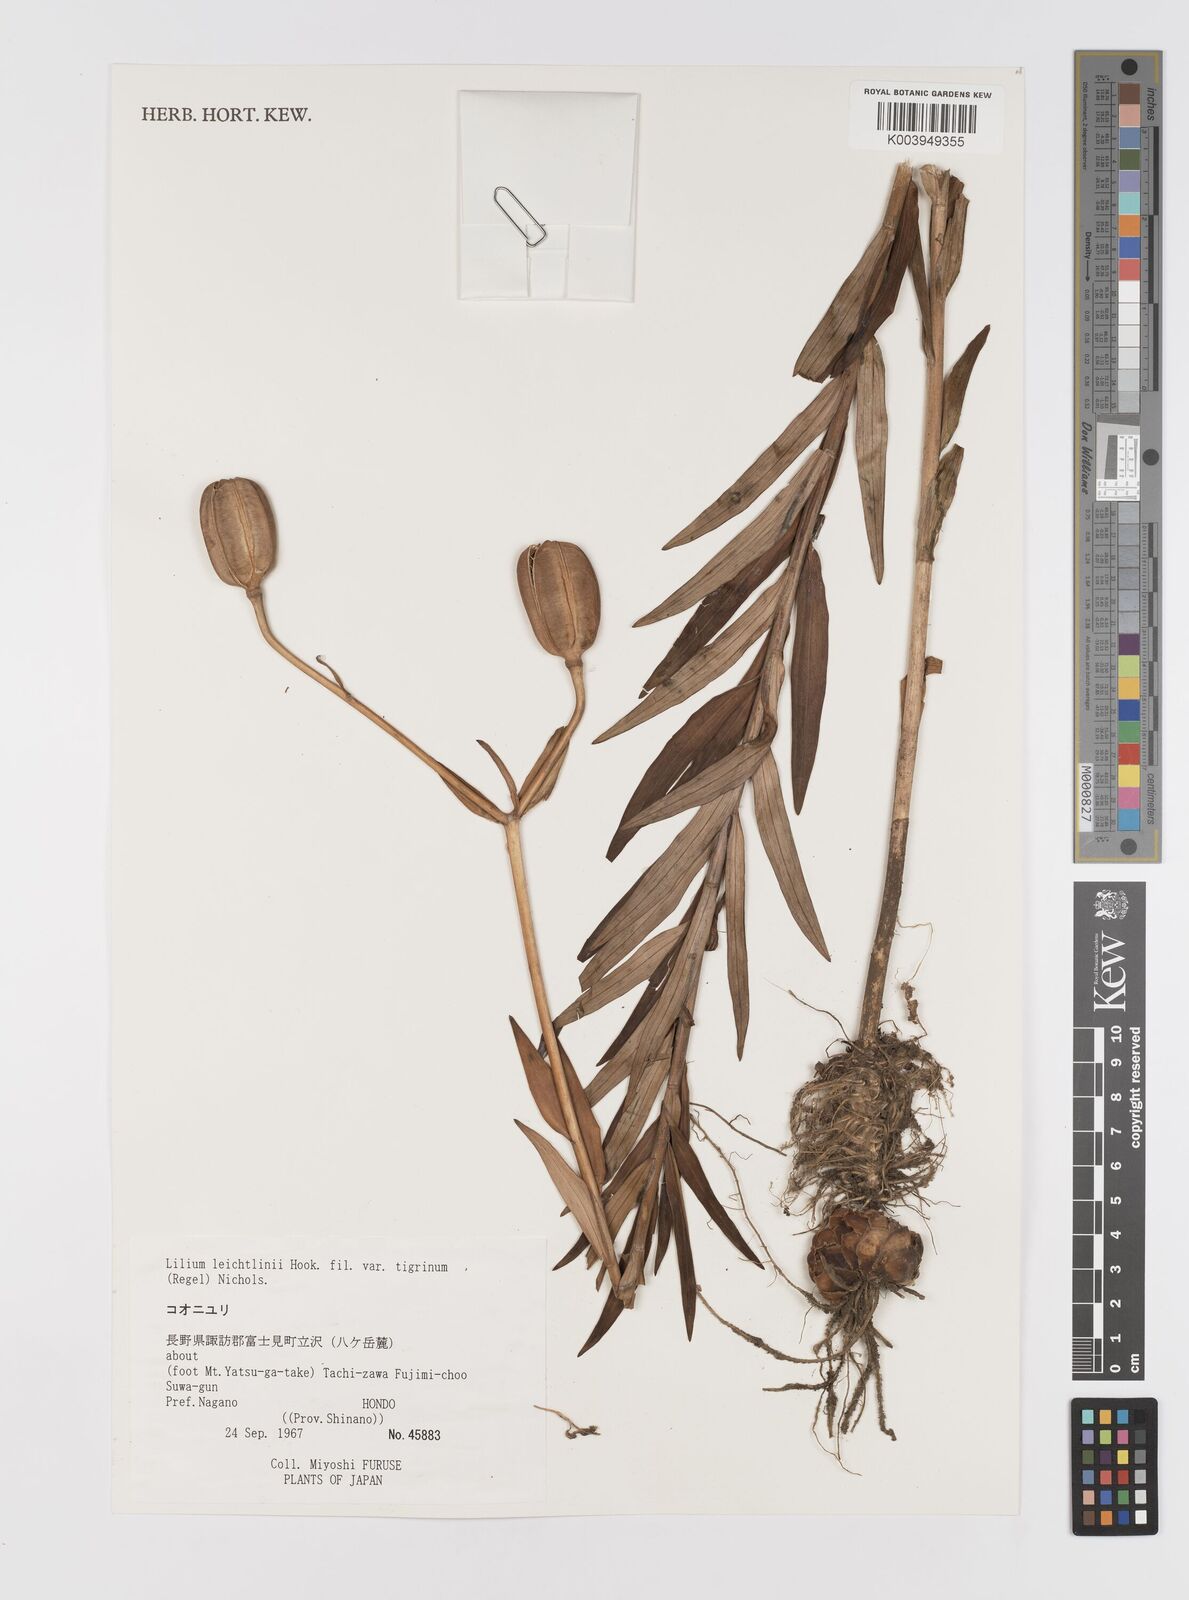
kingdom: Plantae
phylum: Tracheophyta
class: Liliopsida
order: Liliales
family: Liliaceae
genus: Lilium
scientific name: Lilium leichtlinii
